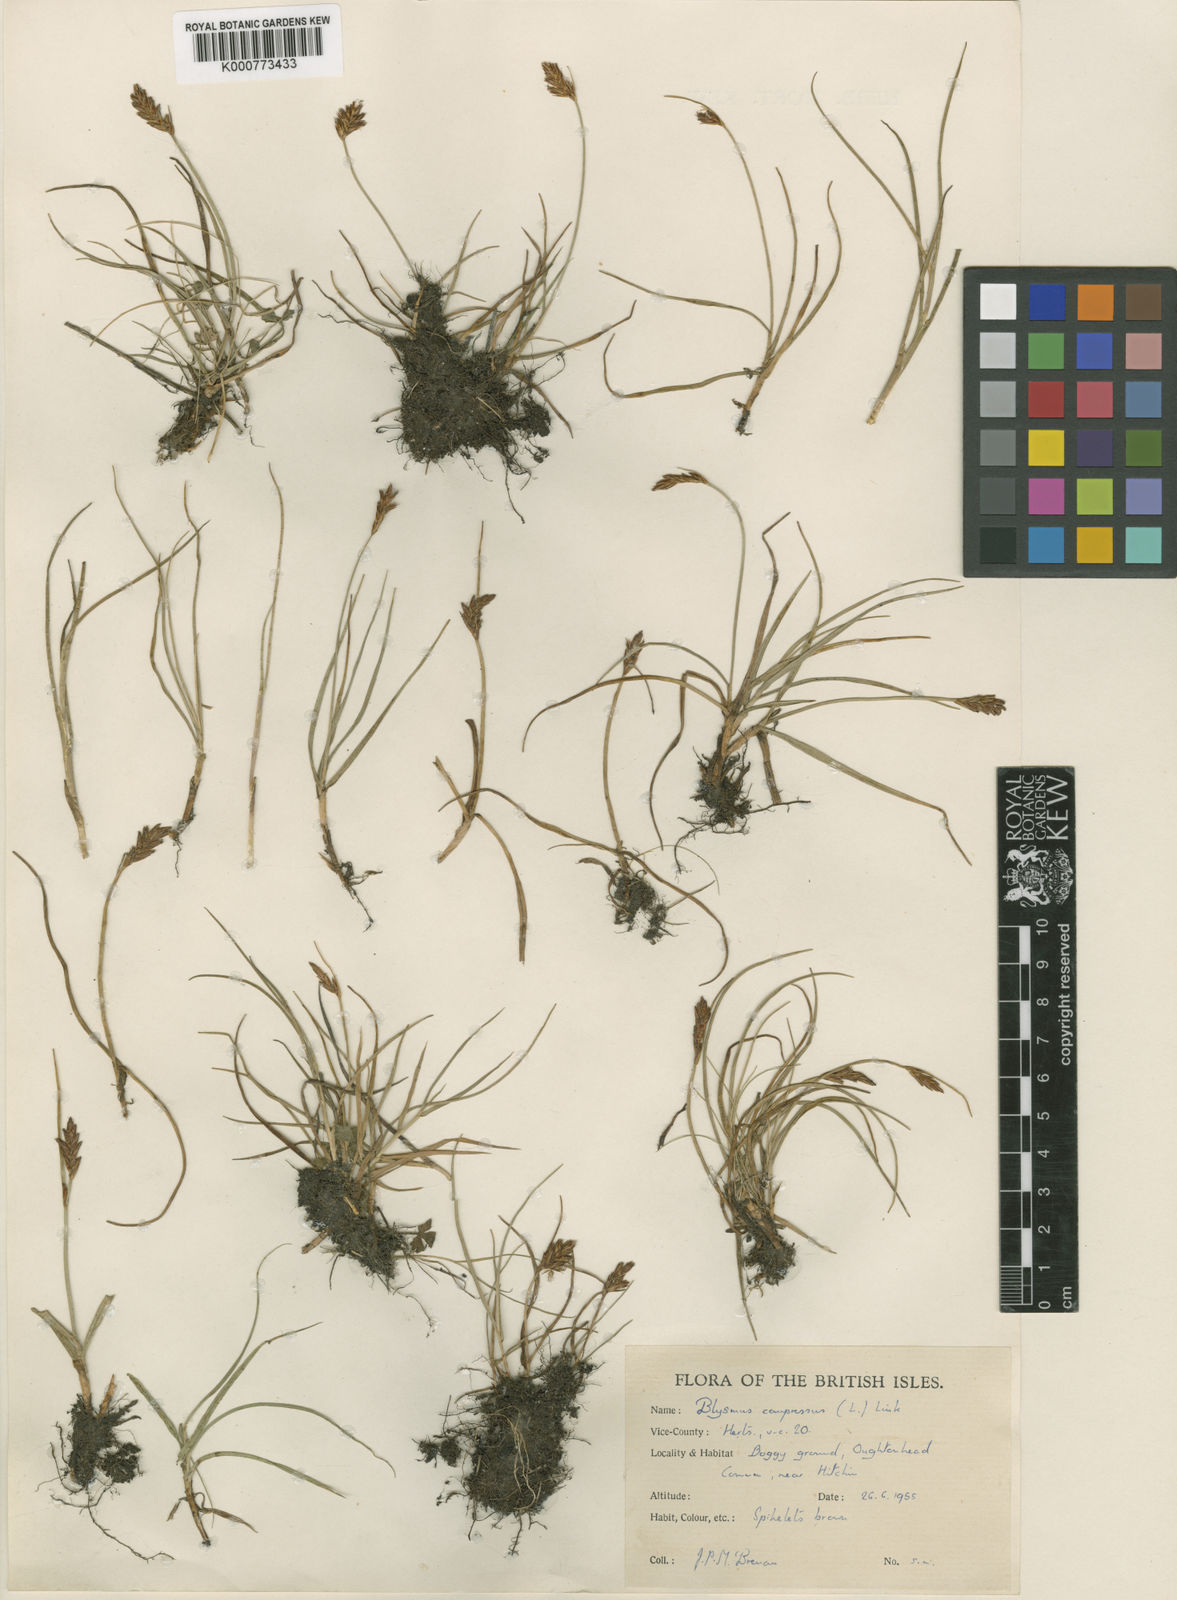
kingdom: Plantae
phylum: Tracheophyta
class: Liliopsida
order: Poales
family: Cyperaceae
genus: Blysmus
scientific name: Blysmus compressus
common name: Flat-sedge
